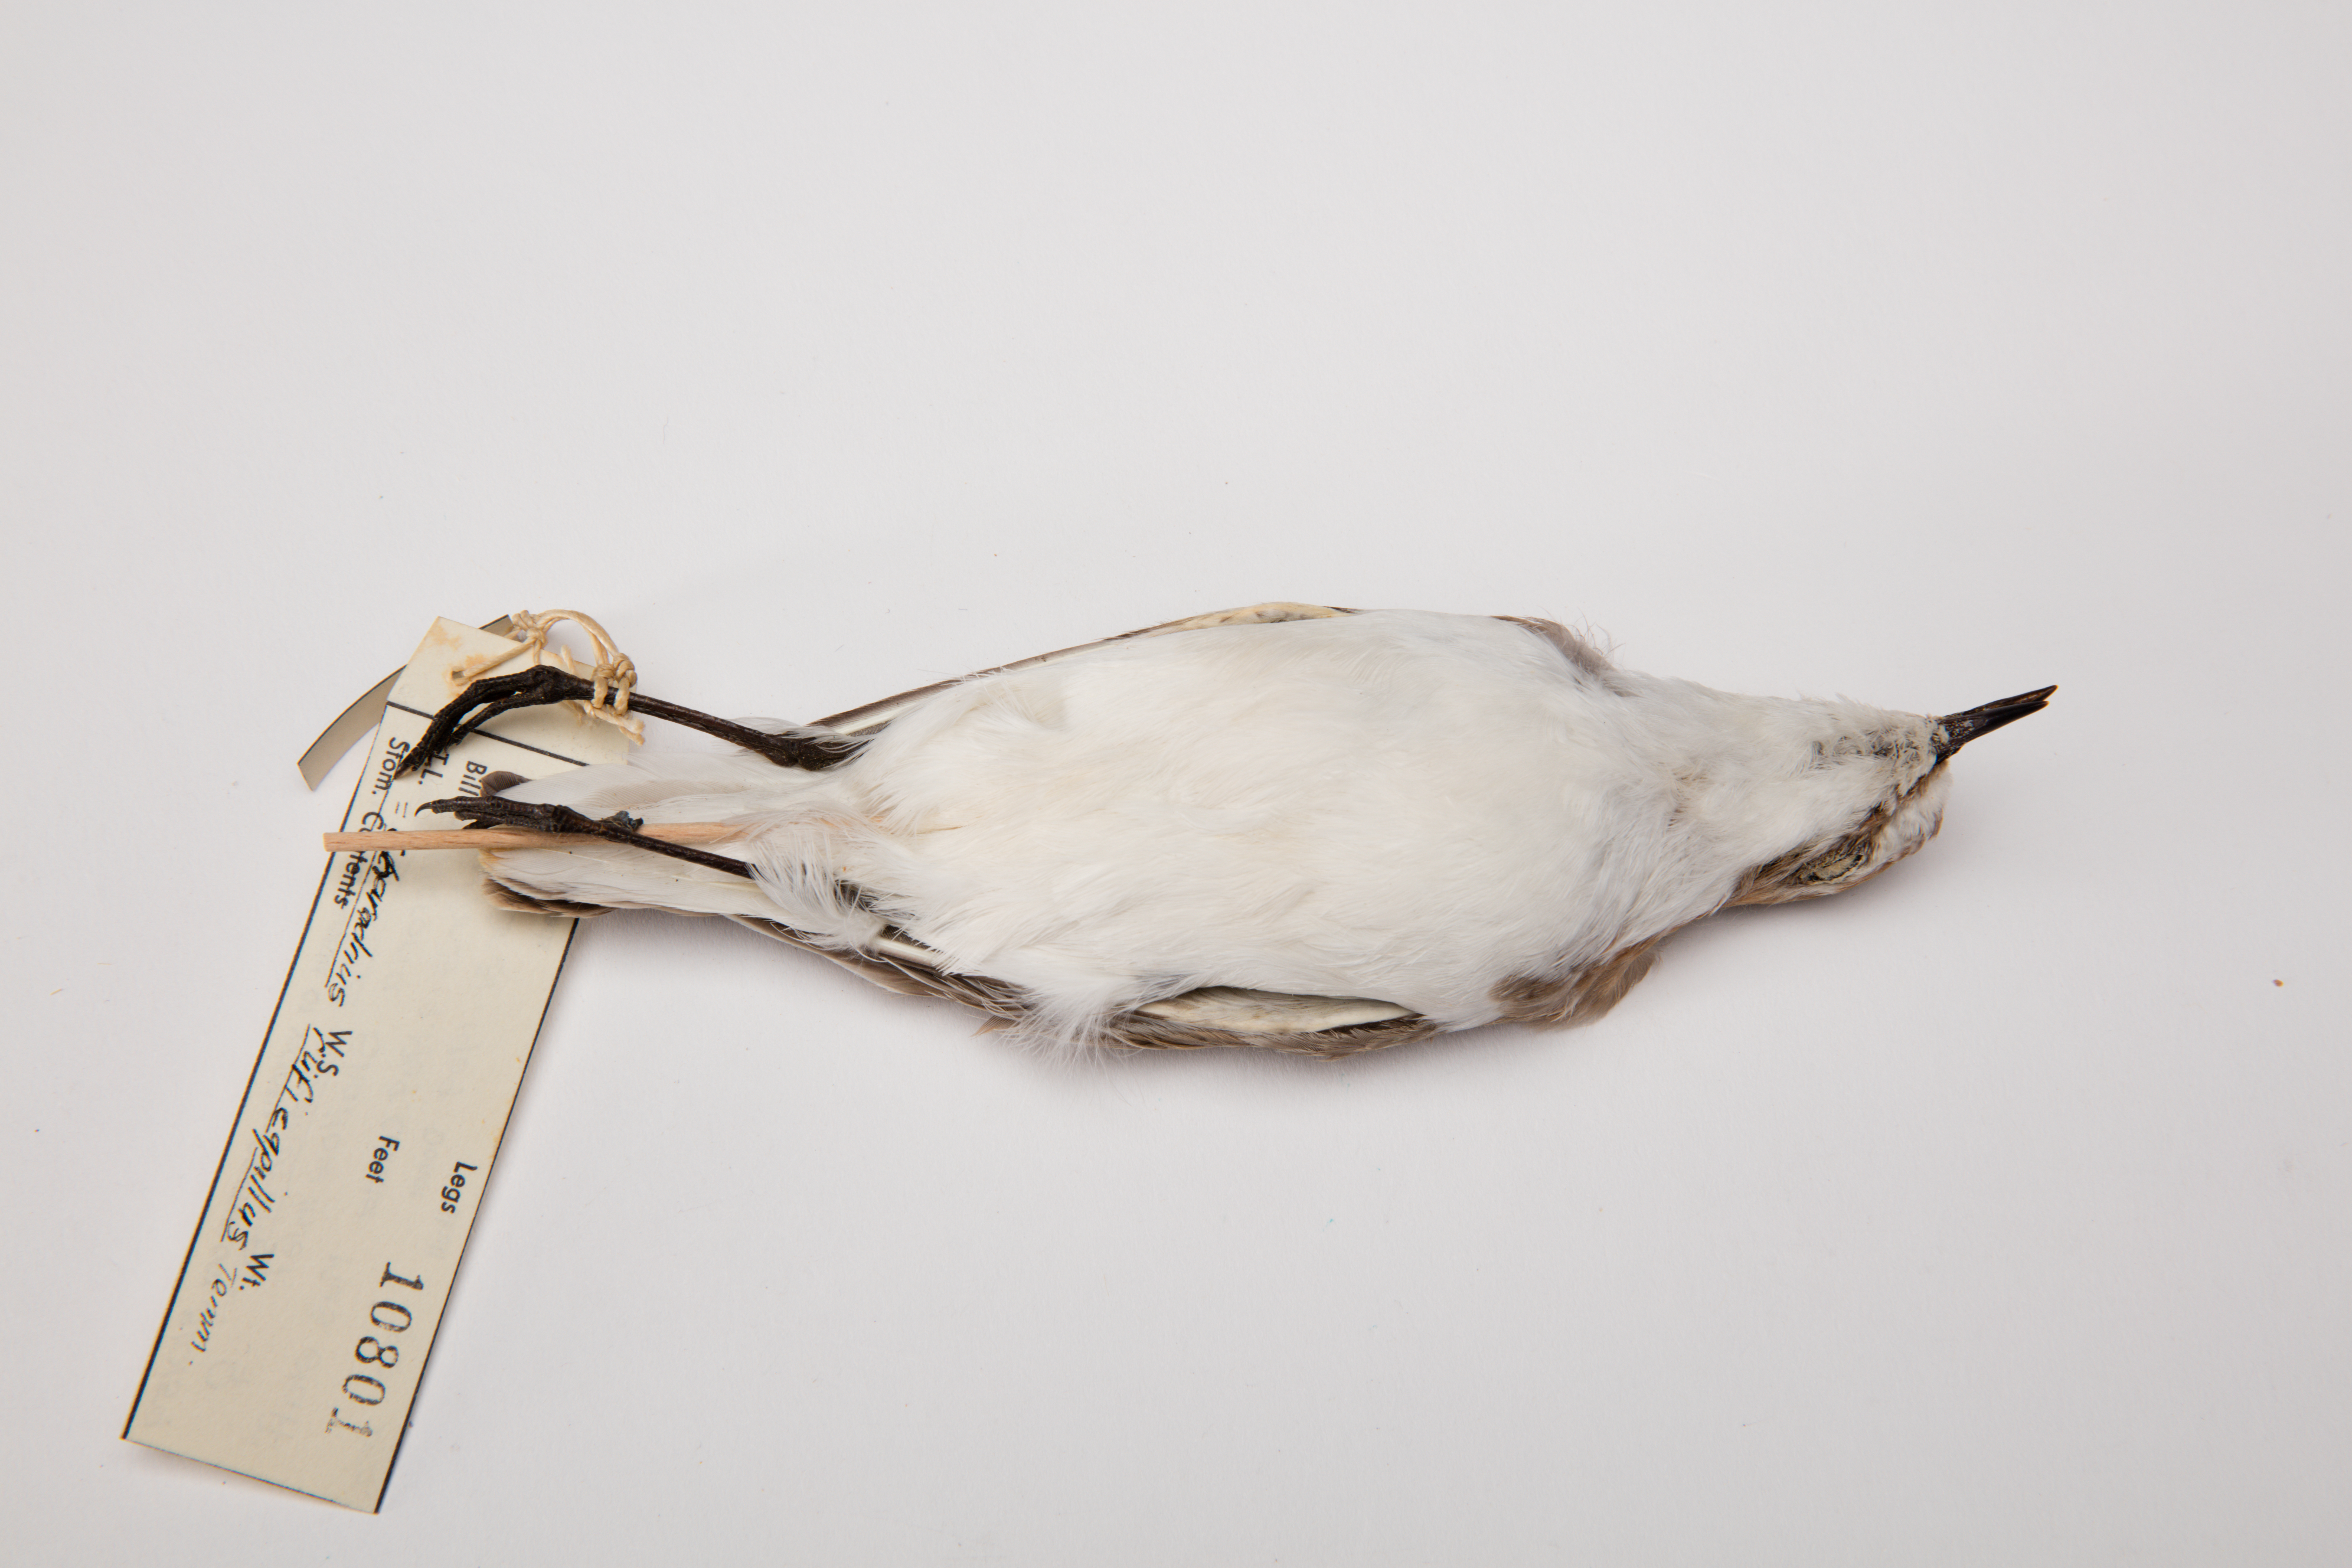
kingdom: Animalia
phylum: Chordata
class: Aves
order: Charadriiformes
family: Charadriidae
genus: Charadrius
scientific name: Charadrius ruficapillus
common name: Red-capped plover
